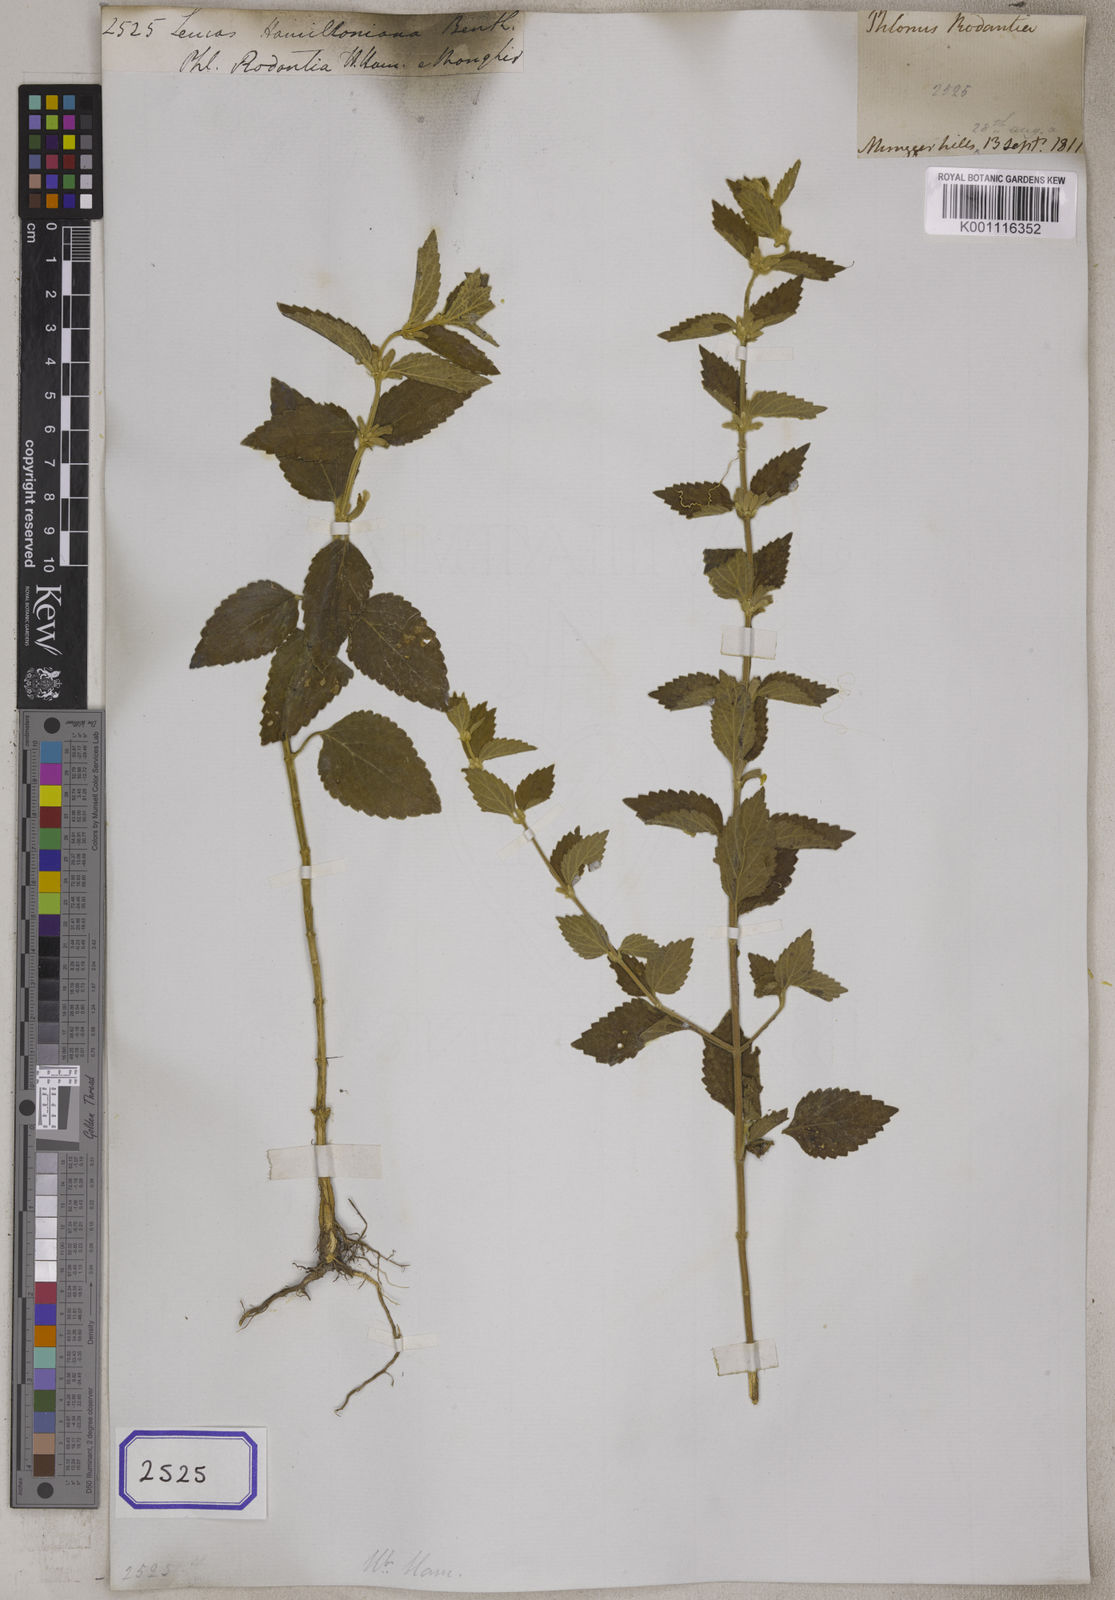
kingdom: Plantae
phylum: Tracheophyta
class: Magnoliopsida
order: Lamiales
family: Lamiaceae
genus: Leucas
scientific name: Leucas montana
